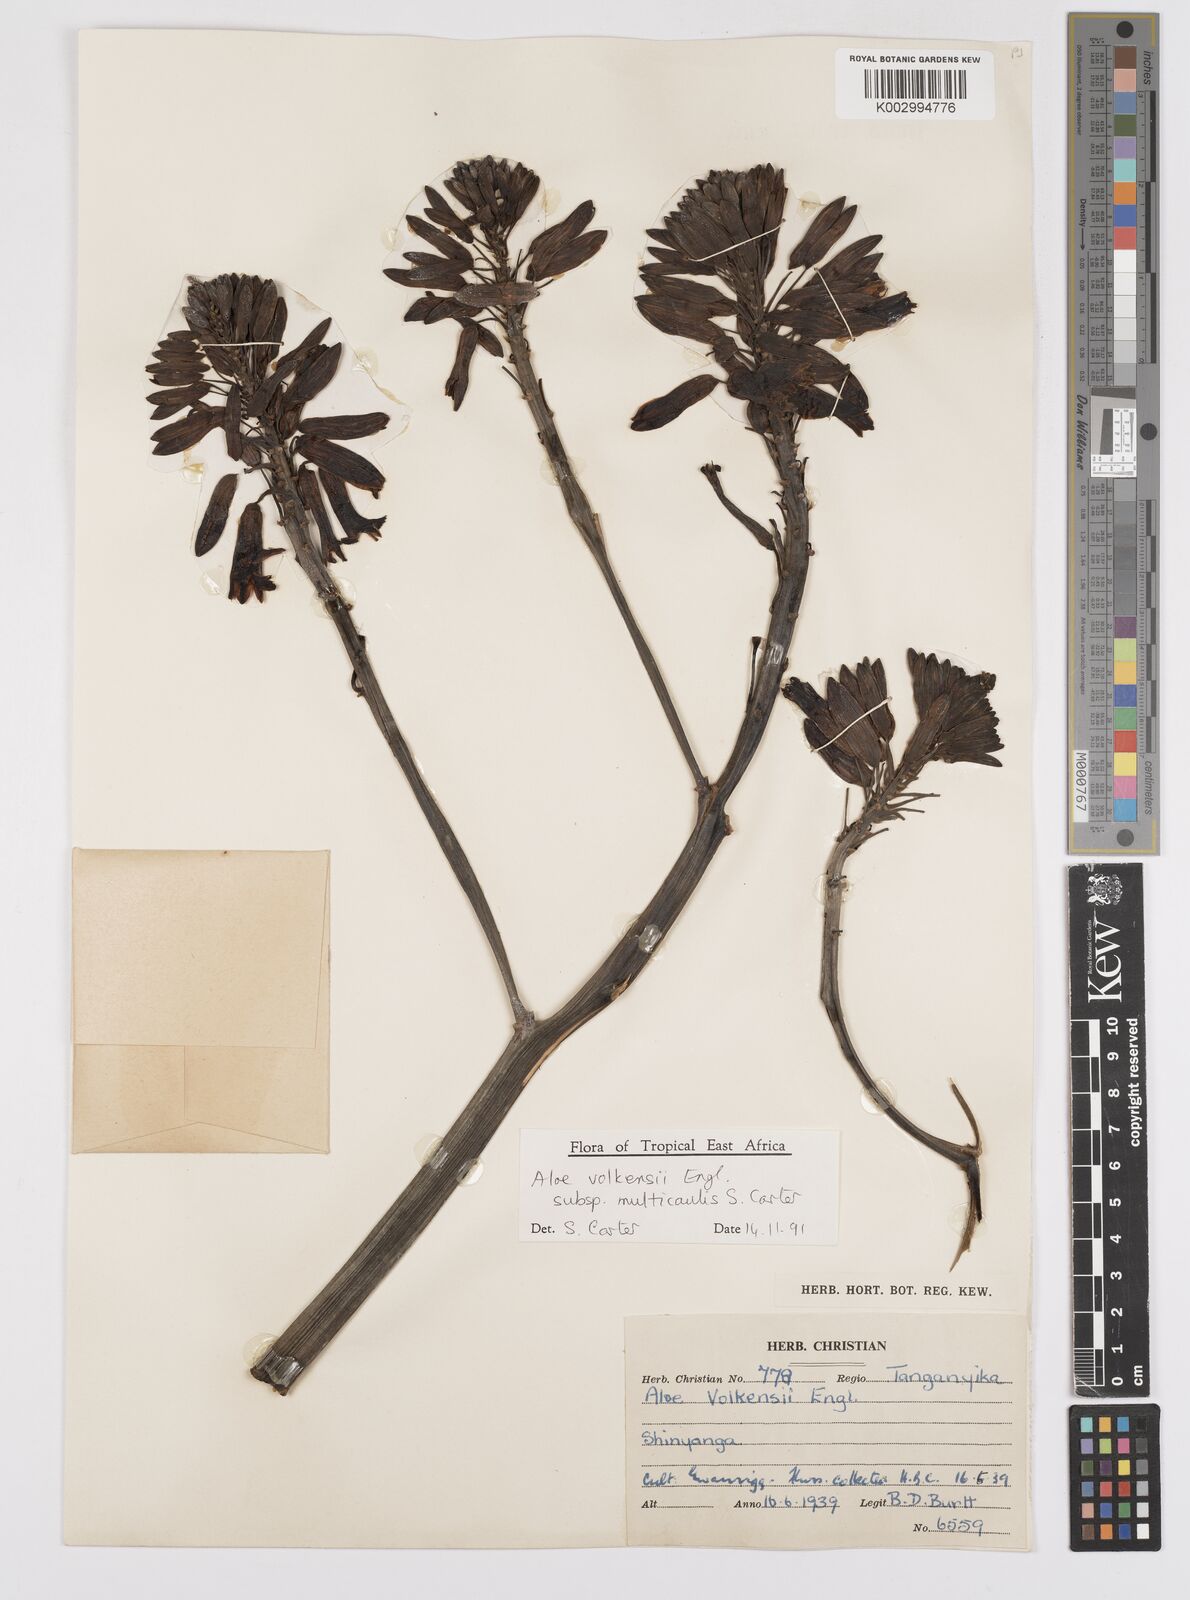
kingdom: Plantae
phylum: Tracheophyta
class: Liliopsida
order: Asparagales
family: Asphodelaceae
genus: Aloe
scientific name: Aloe volkensii
